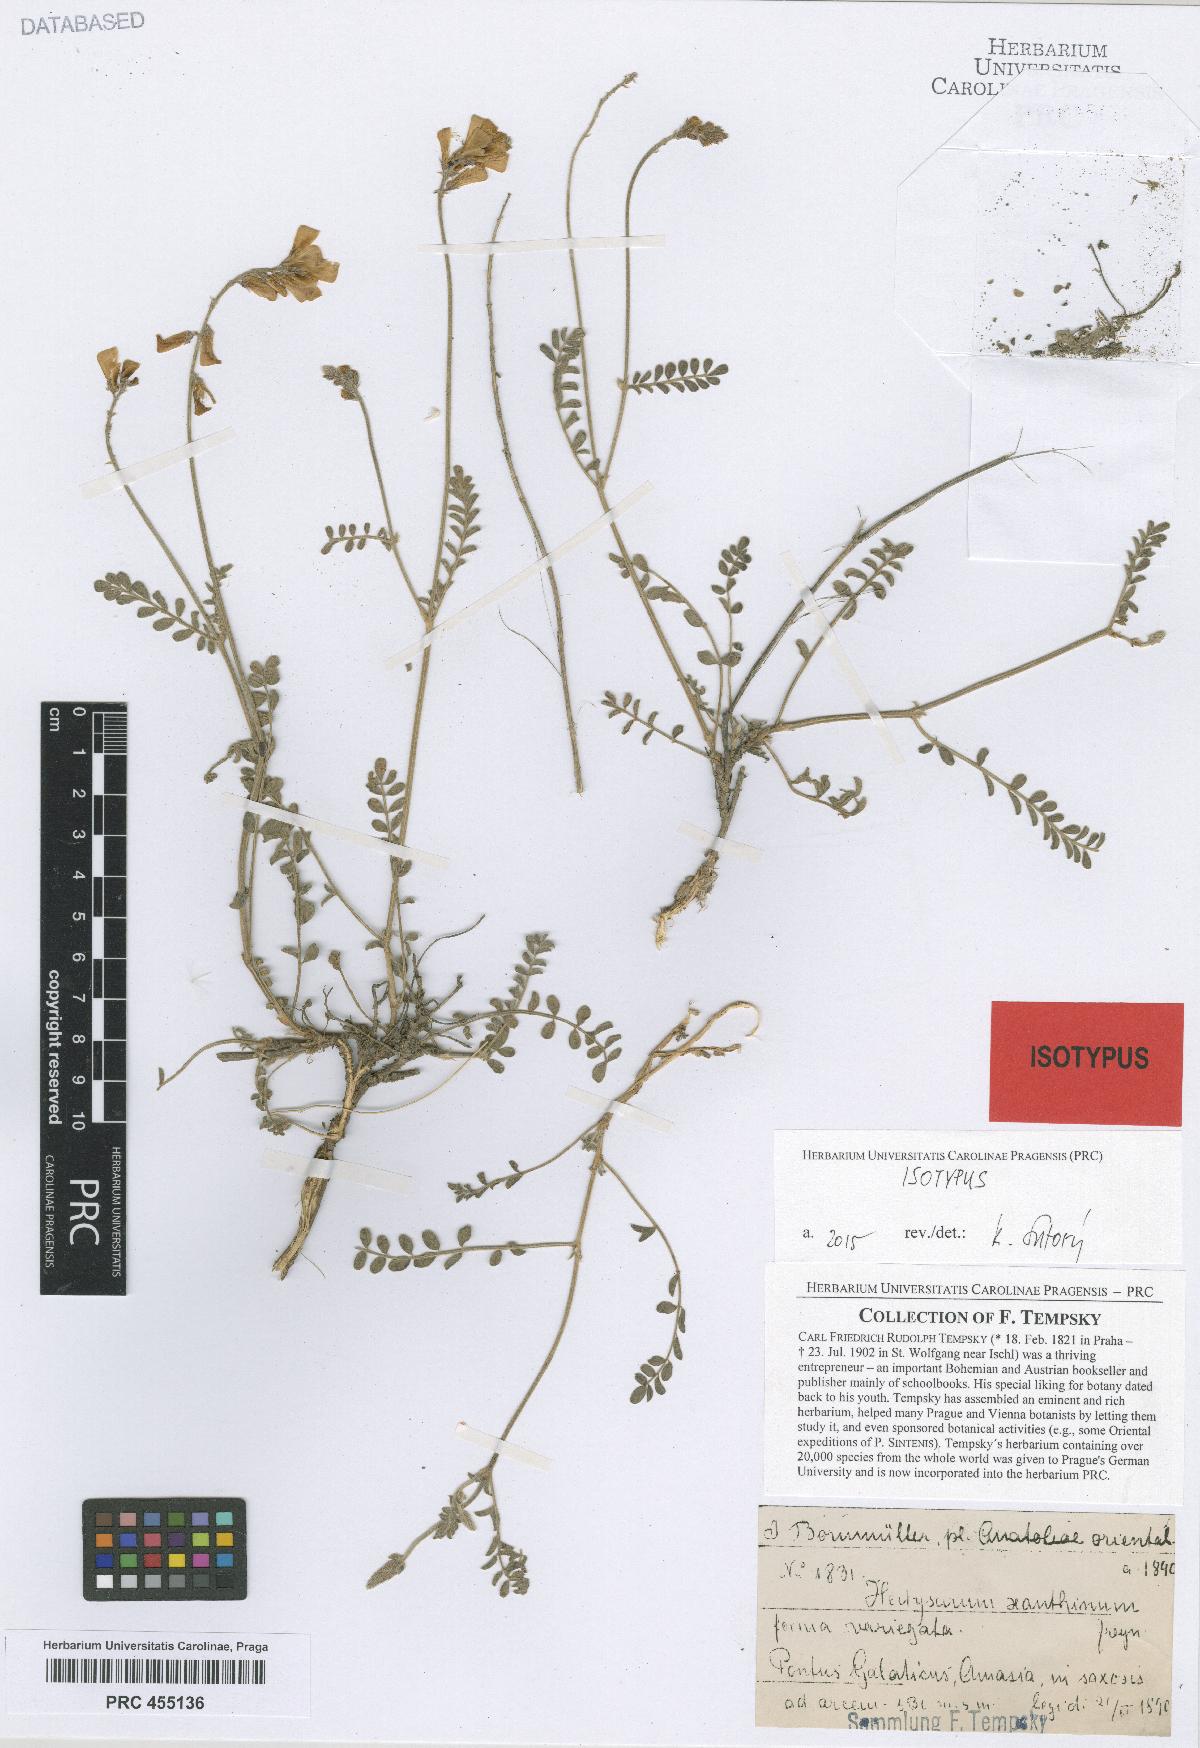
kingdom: Plantae
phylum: Tracheophyta
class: Magnoliopsida
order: Fabales
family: Fabaceae
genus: Hedysarum
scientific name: Hedysarum pogonocarpum
